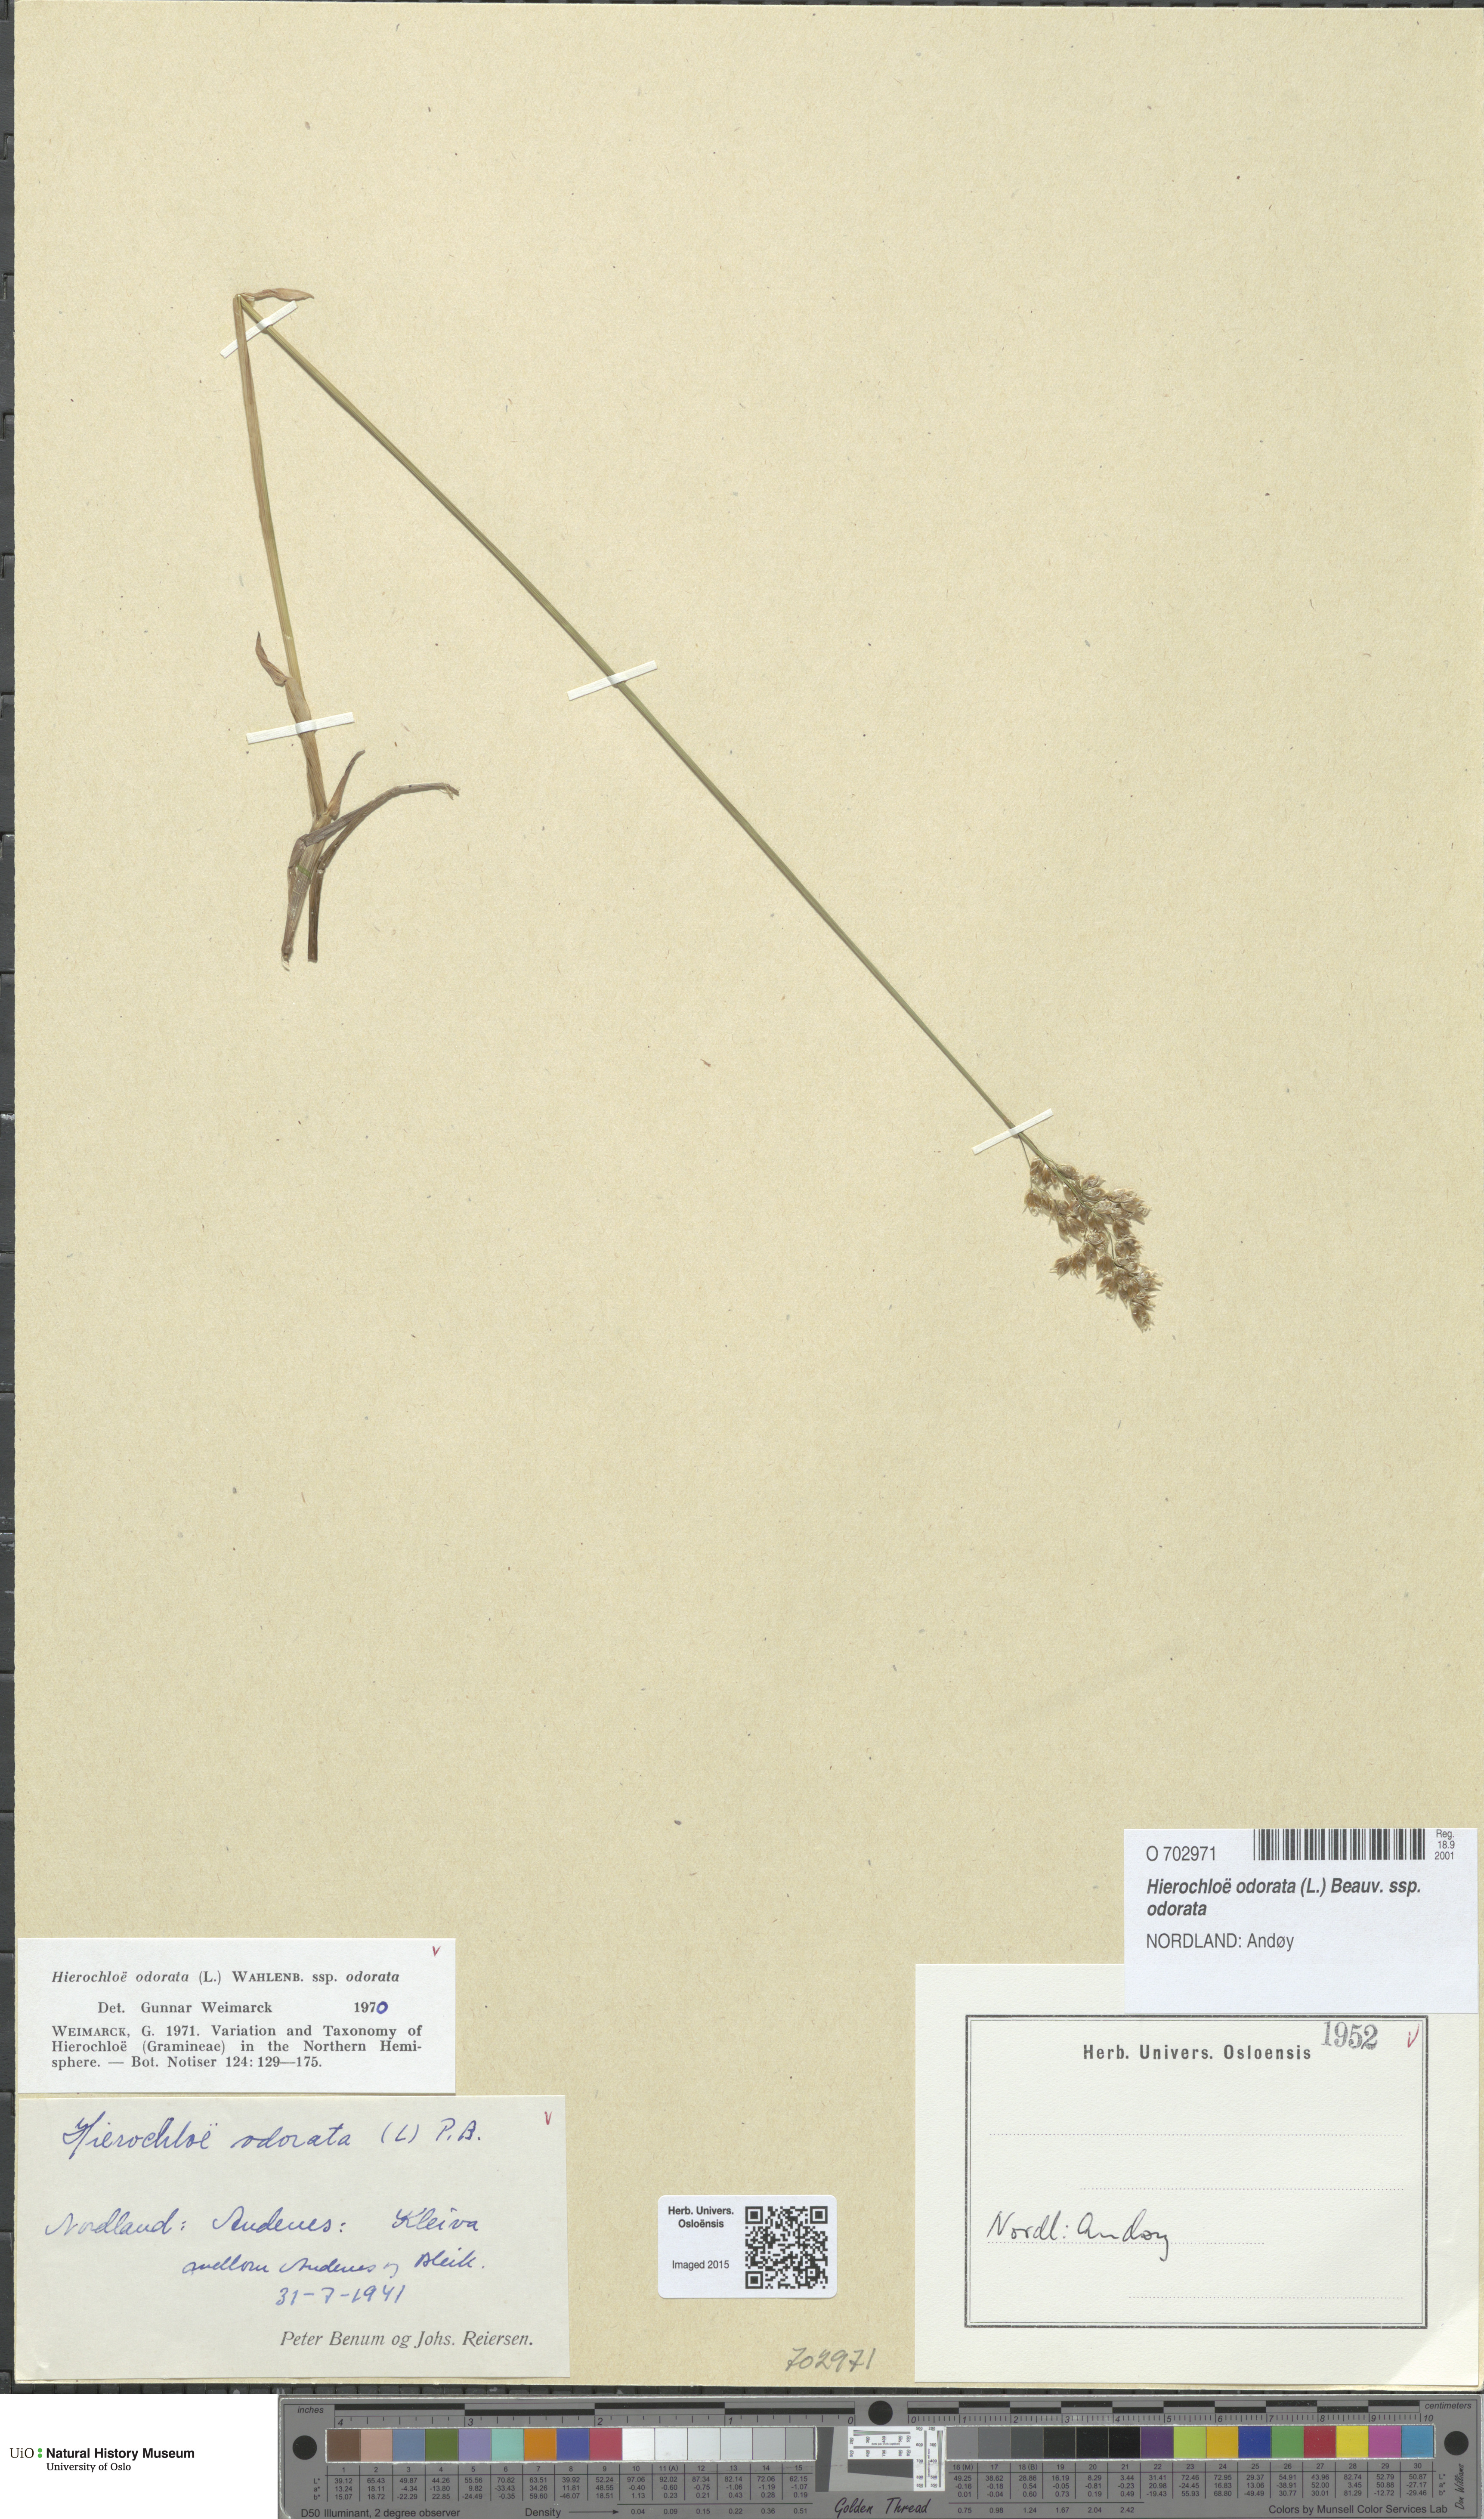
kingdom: Plantae
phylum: Tracheophyta
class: Liliopsida
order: Poales
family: Poaceae
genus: Anthoxanthum
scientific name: Anthoxanthum nitens
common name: Holy grass
